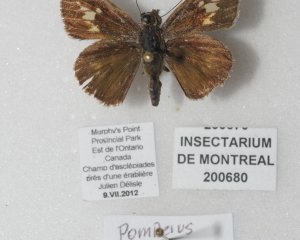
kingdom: Animalia
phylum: Arthropoda
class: Insecta
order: Lepidoptera
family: Hesperiidae
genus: Vernia
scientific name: Vernia verna
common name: Little Glassywing
